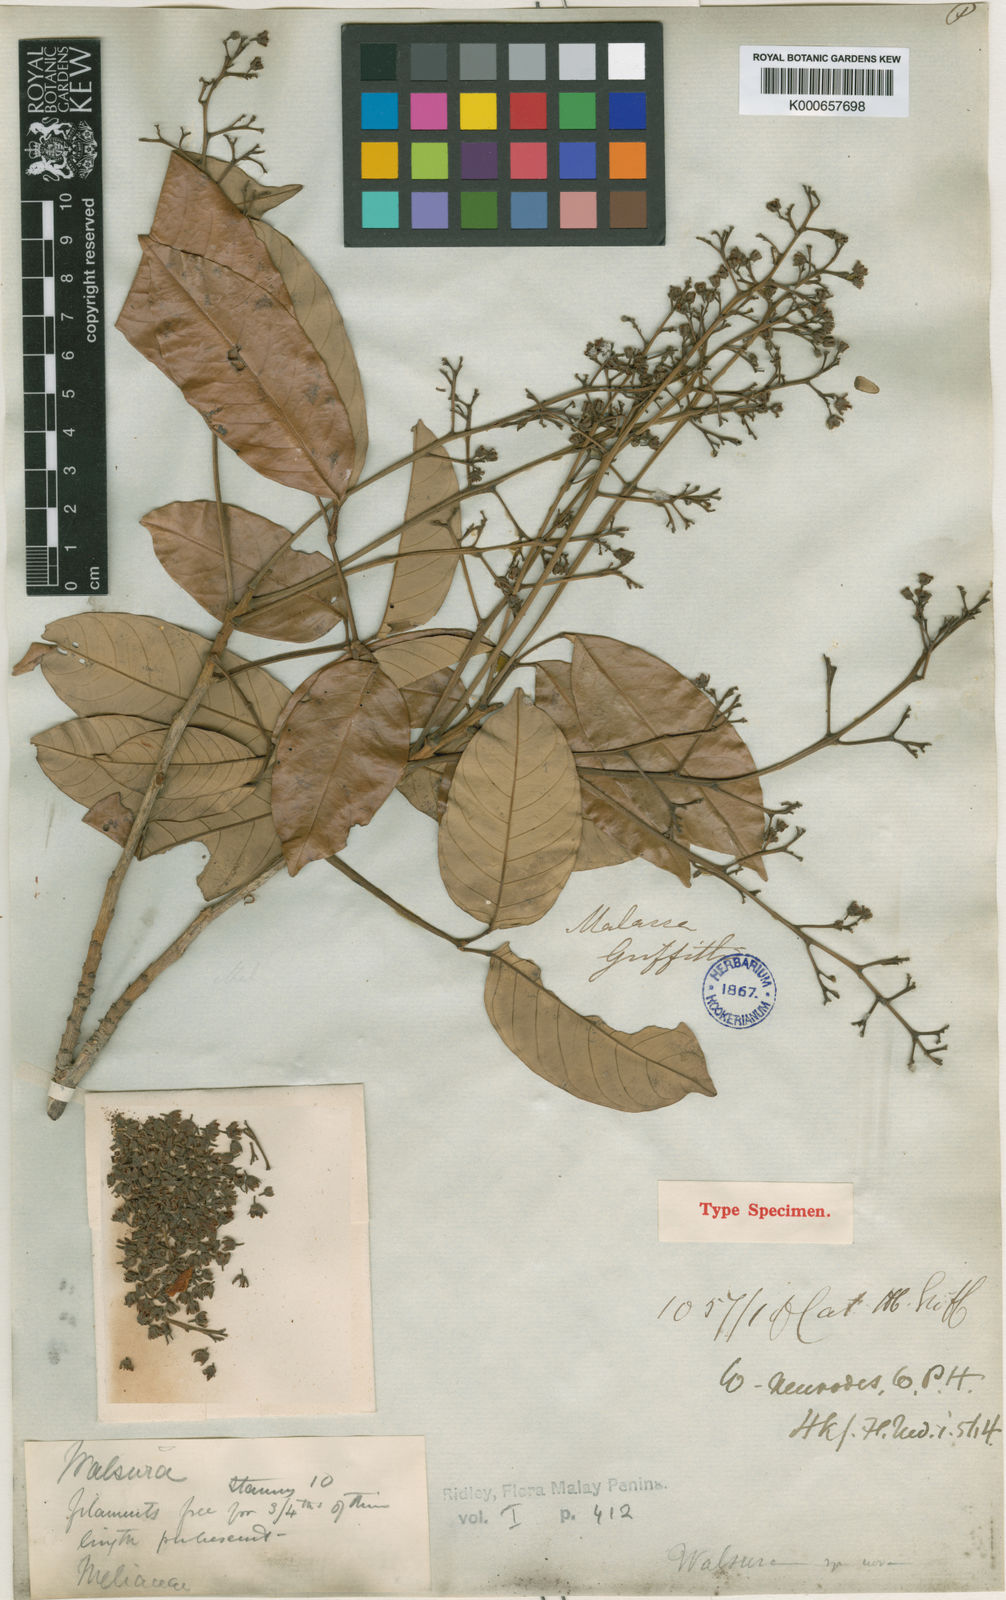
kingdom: Plantae
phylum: Tracheophyta
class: Magnoliopsida
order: Sapindales
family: Meliaceae
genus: Walsura
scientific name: Walsura pinnata
